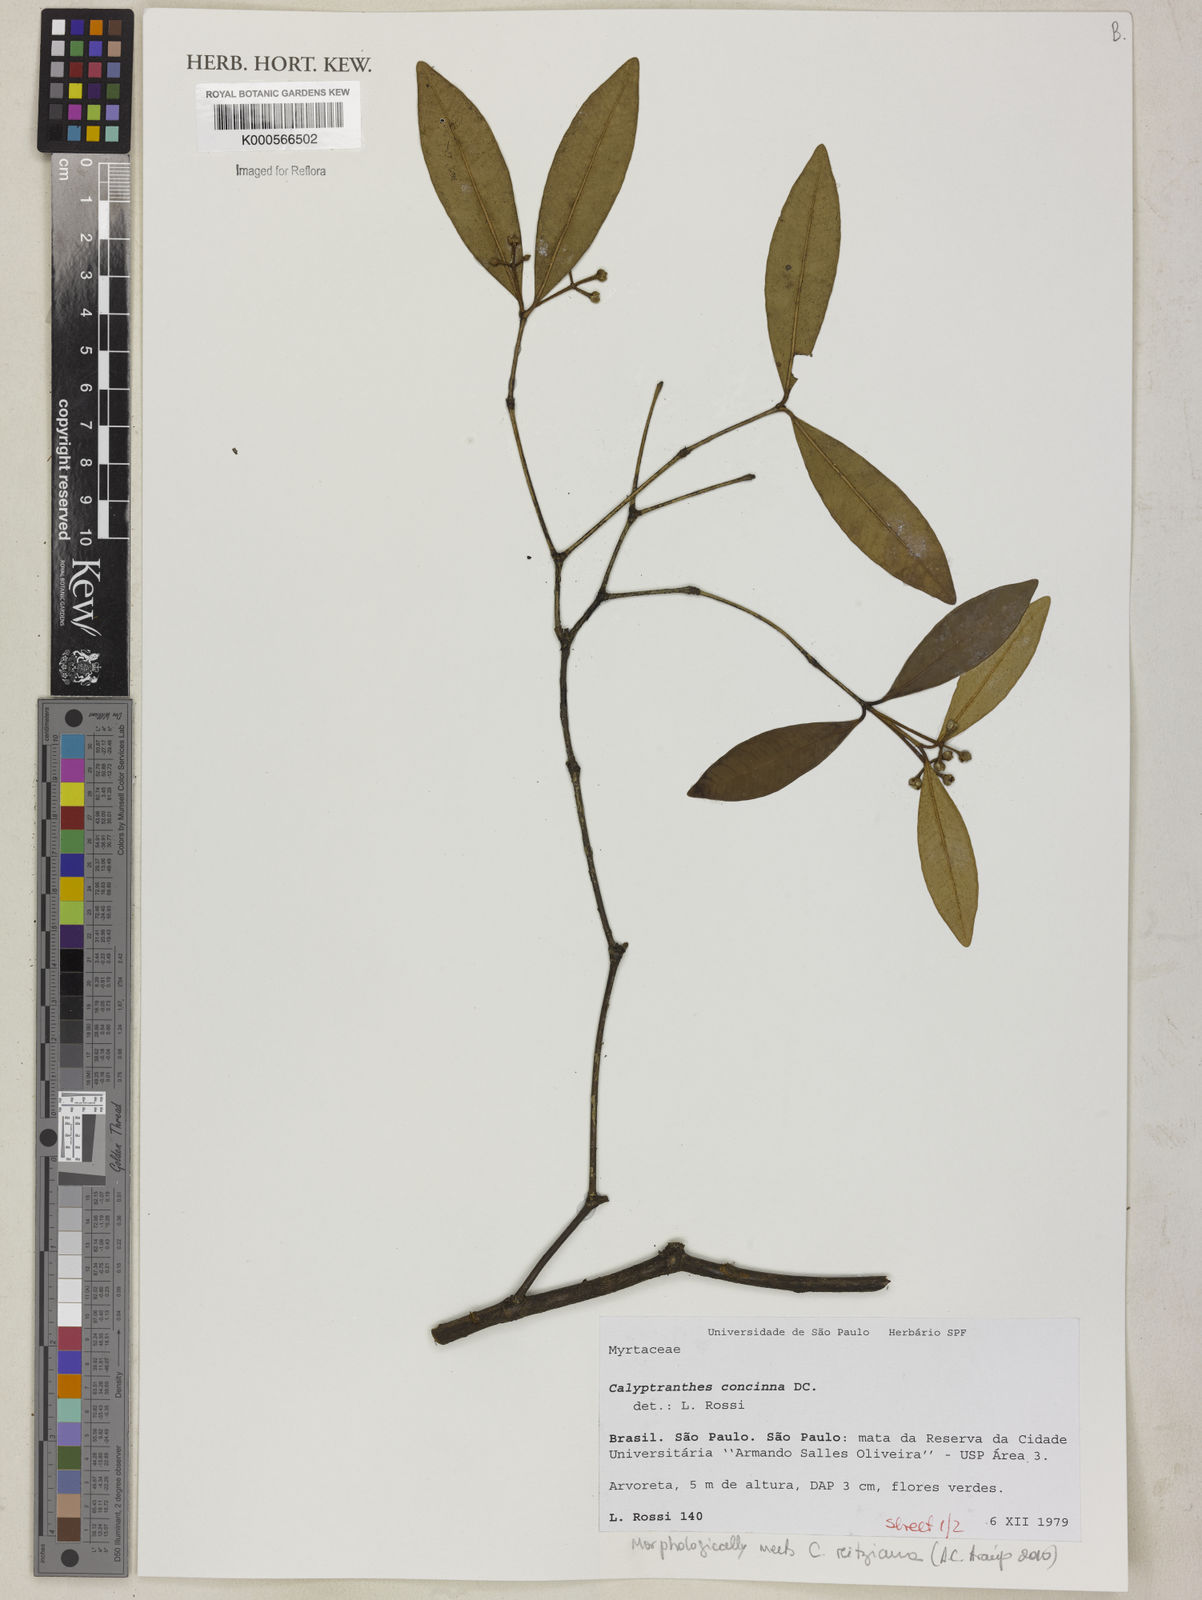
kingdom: Plantae
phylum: Tracheophyta
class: Magnoliopsida
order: Myrtales
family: Myrtaceae
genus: Myrcia
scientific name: Myrcia cruciflora
